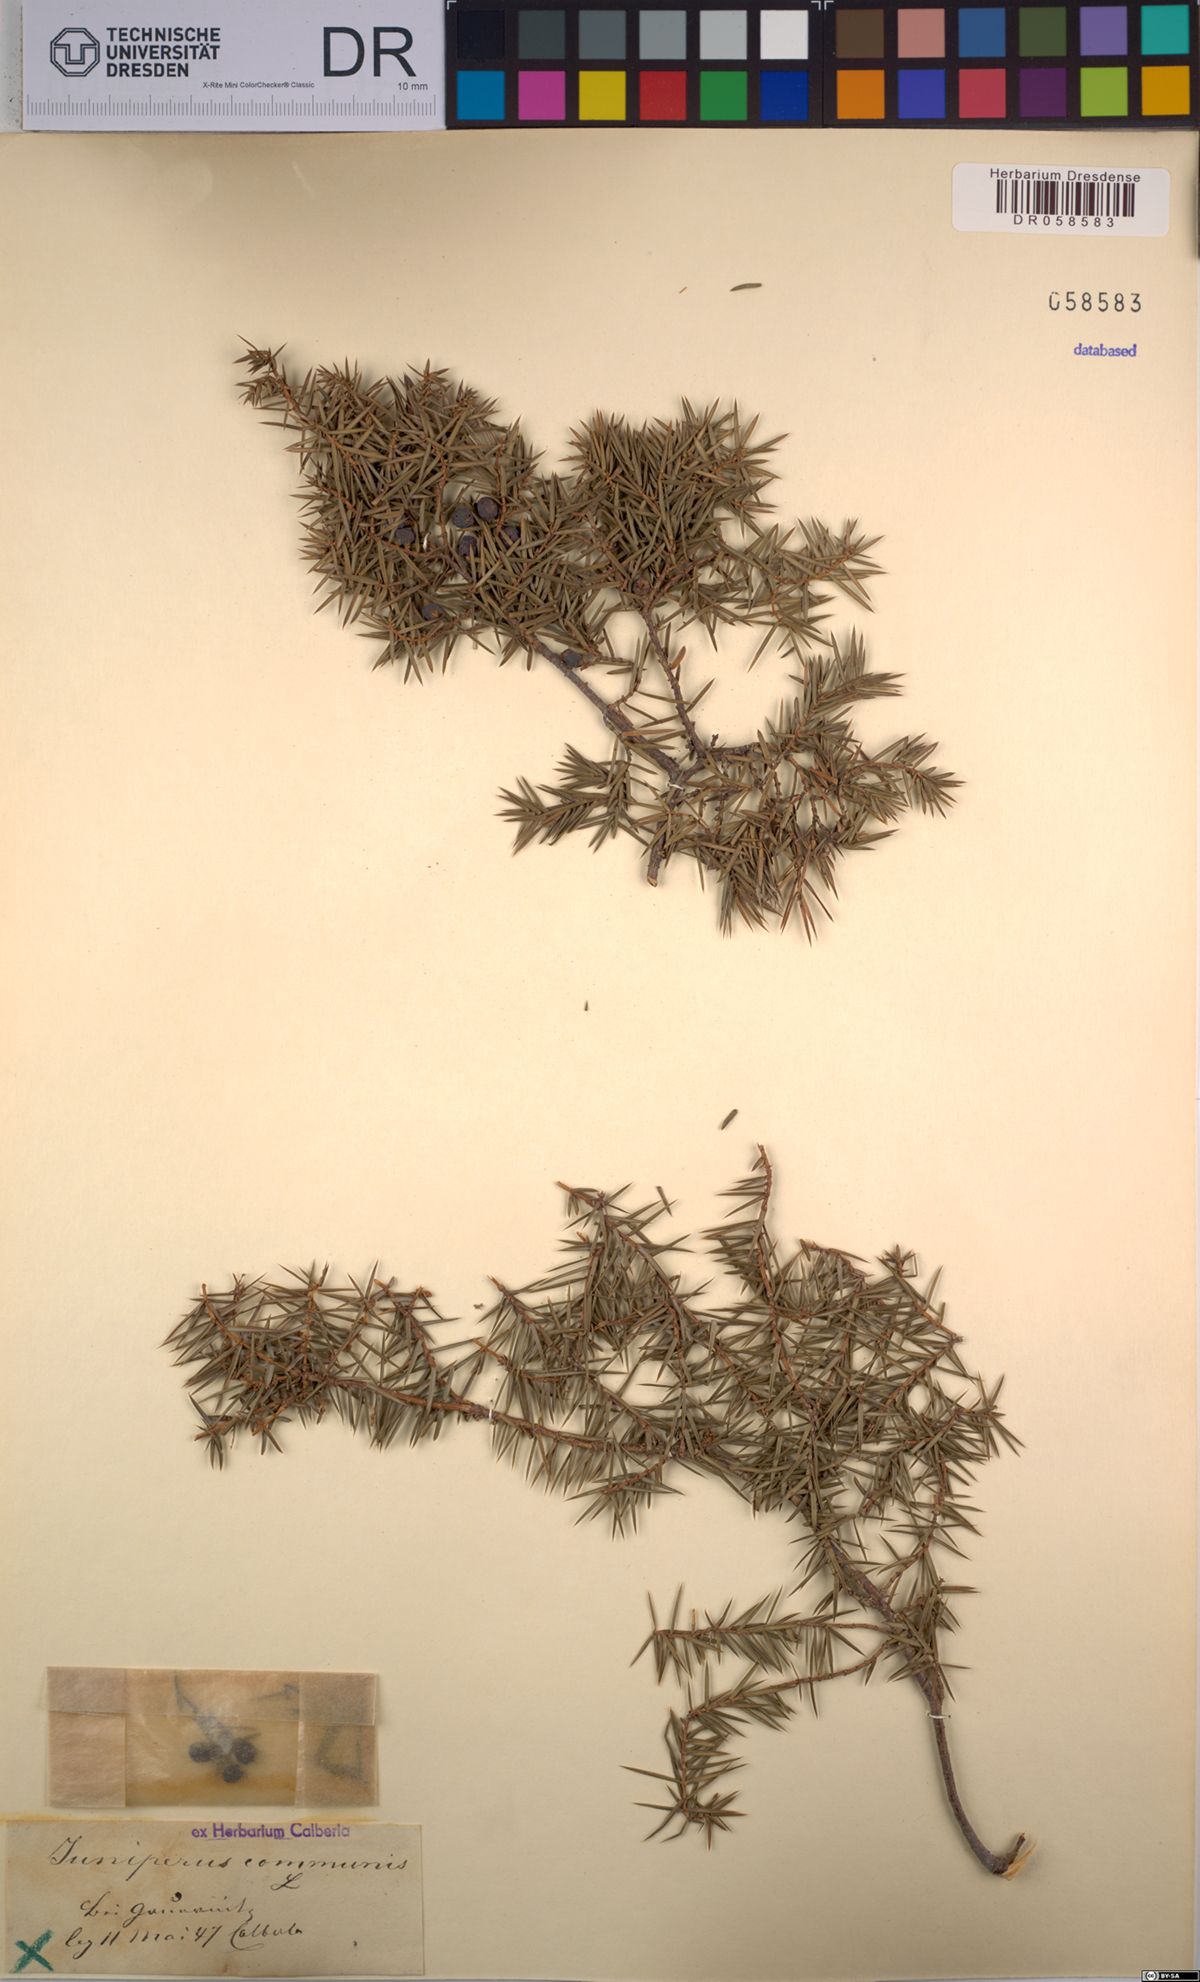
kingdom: Plantae
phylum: Tracheophyta
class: Pinopsida
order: Pinales
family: Cupressaceae
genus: Juniperus
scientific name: Juniperus communis
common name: Common juniper
